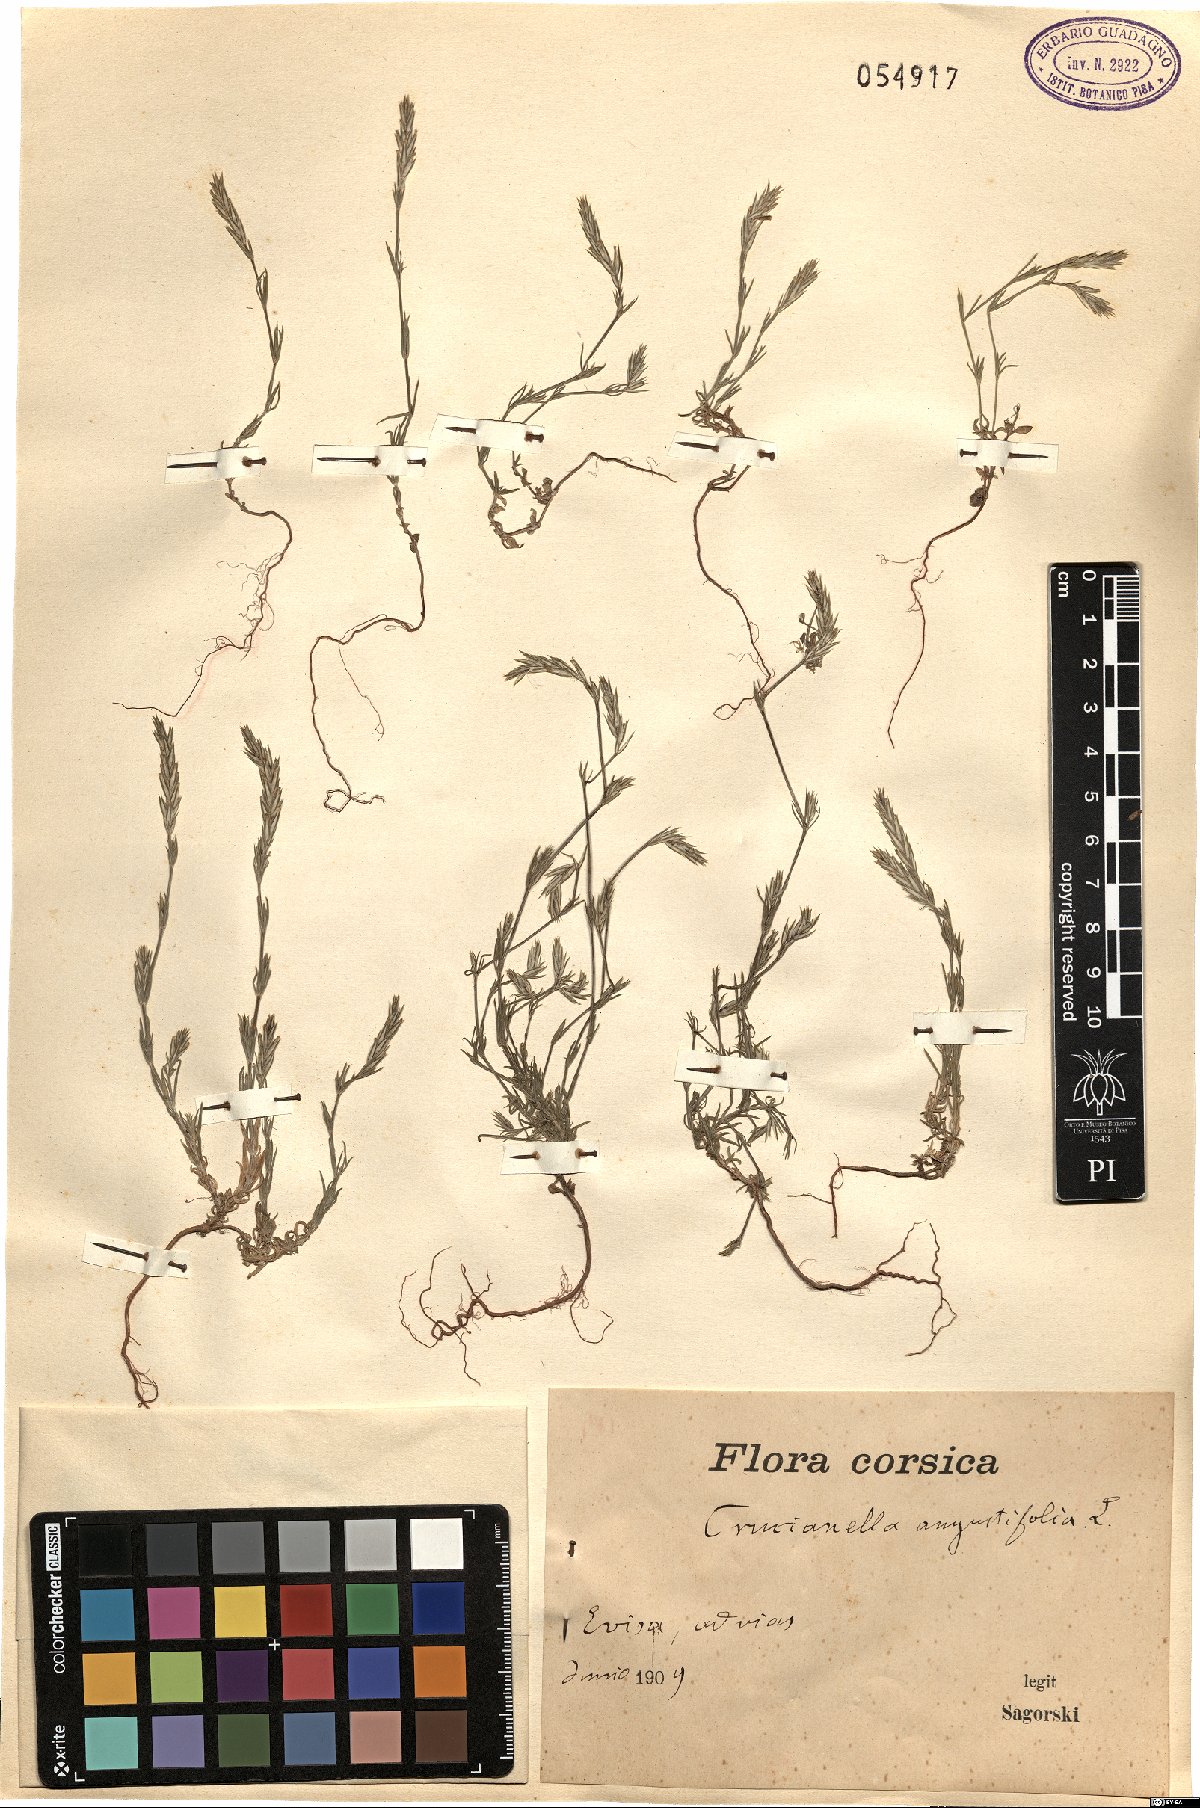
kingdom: Plantae
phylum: Tracheophyta
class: Magnoliopsida
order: Gentianales
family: Rubiaceae
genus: Crucianella
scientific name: Crucianella angustifolia
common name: Narrowleaf crucianella
